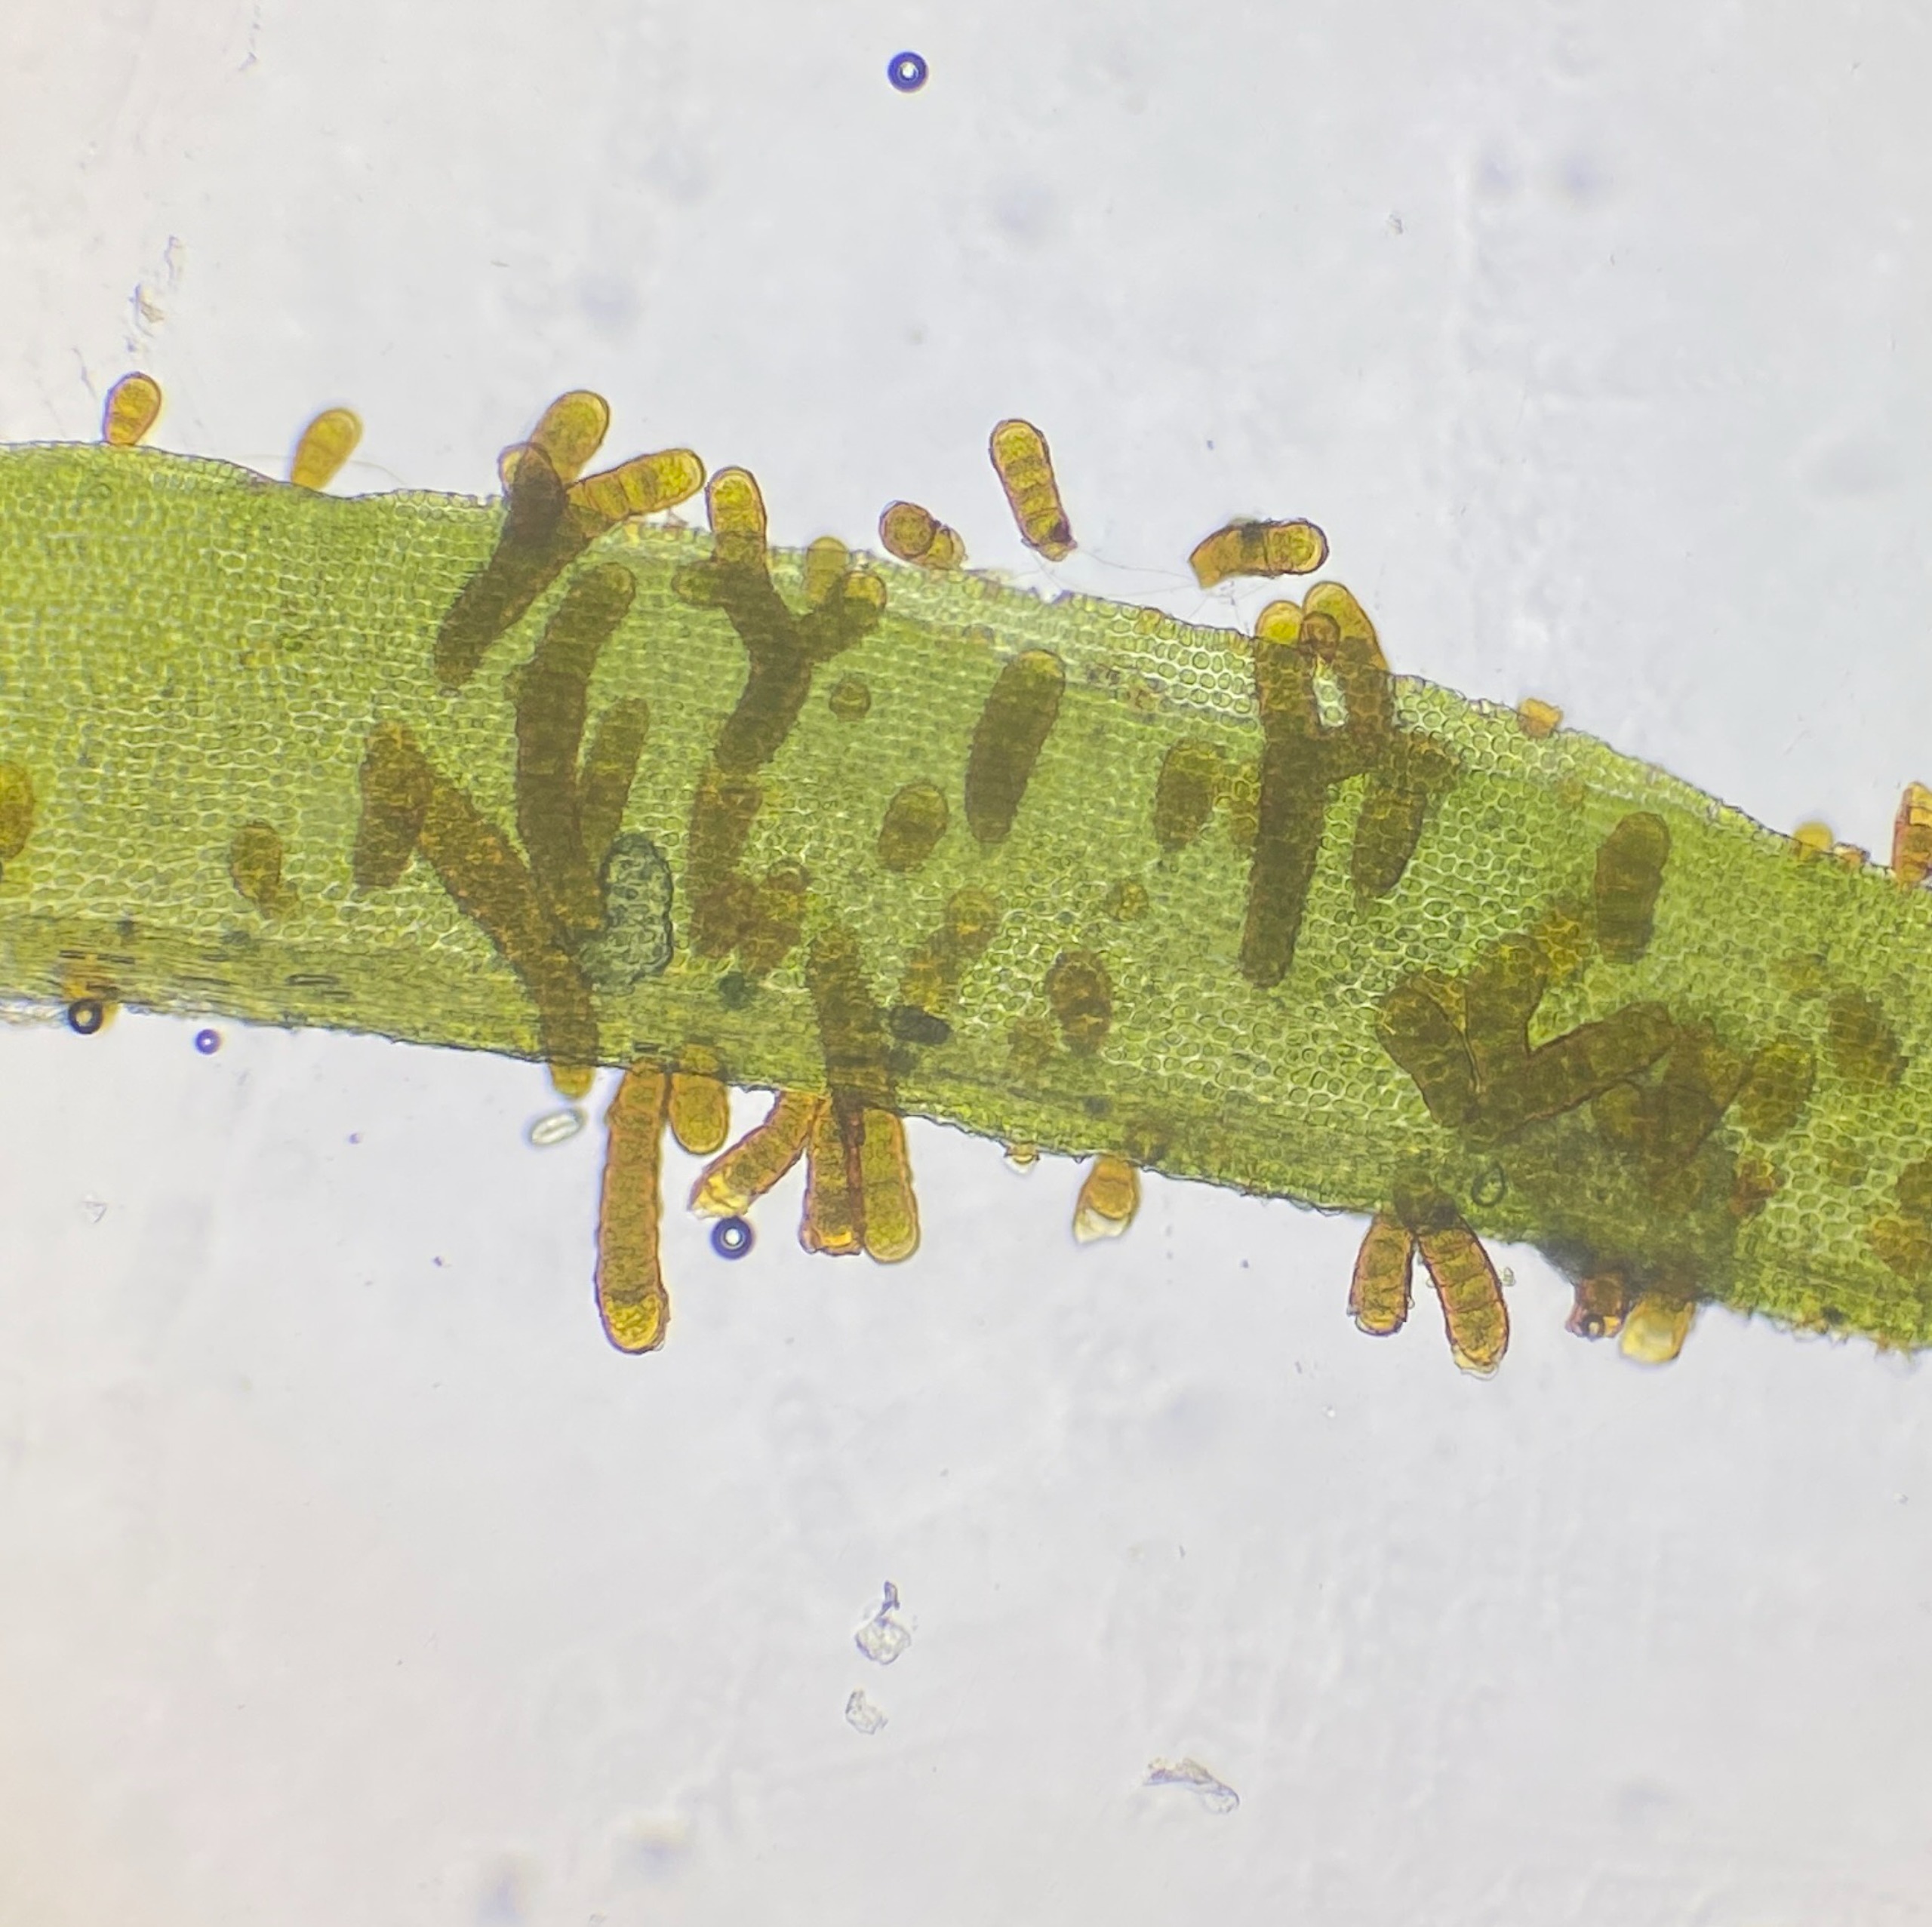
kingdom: Plantae
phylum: Bryophyta
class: Bryopsida
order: Orthotrichales
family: Orthotrichaceae
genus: Pulvigera
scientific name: Pulvigera lyellii
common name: Stor furehætte
